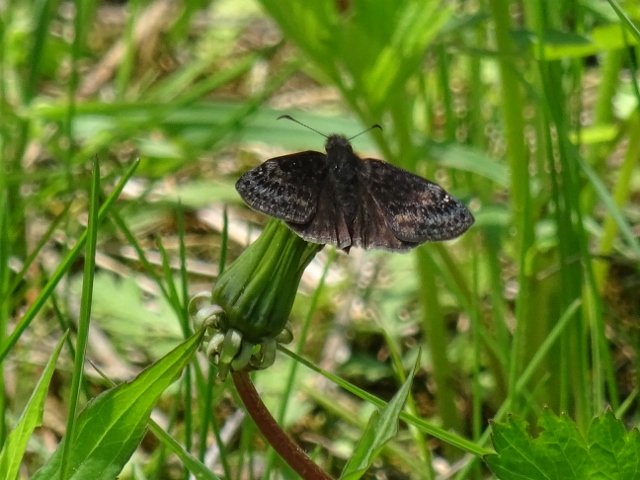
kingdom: Animalia
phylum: Arthropoda
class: Insecta
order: Lepidoptera
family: Hesperiidae
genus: Gesta
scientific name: Gesta
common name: Wild Indigo Duskywing
